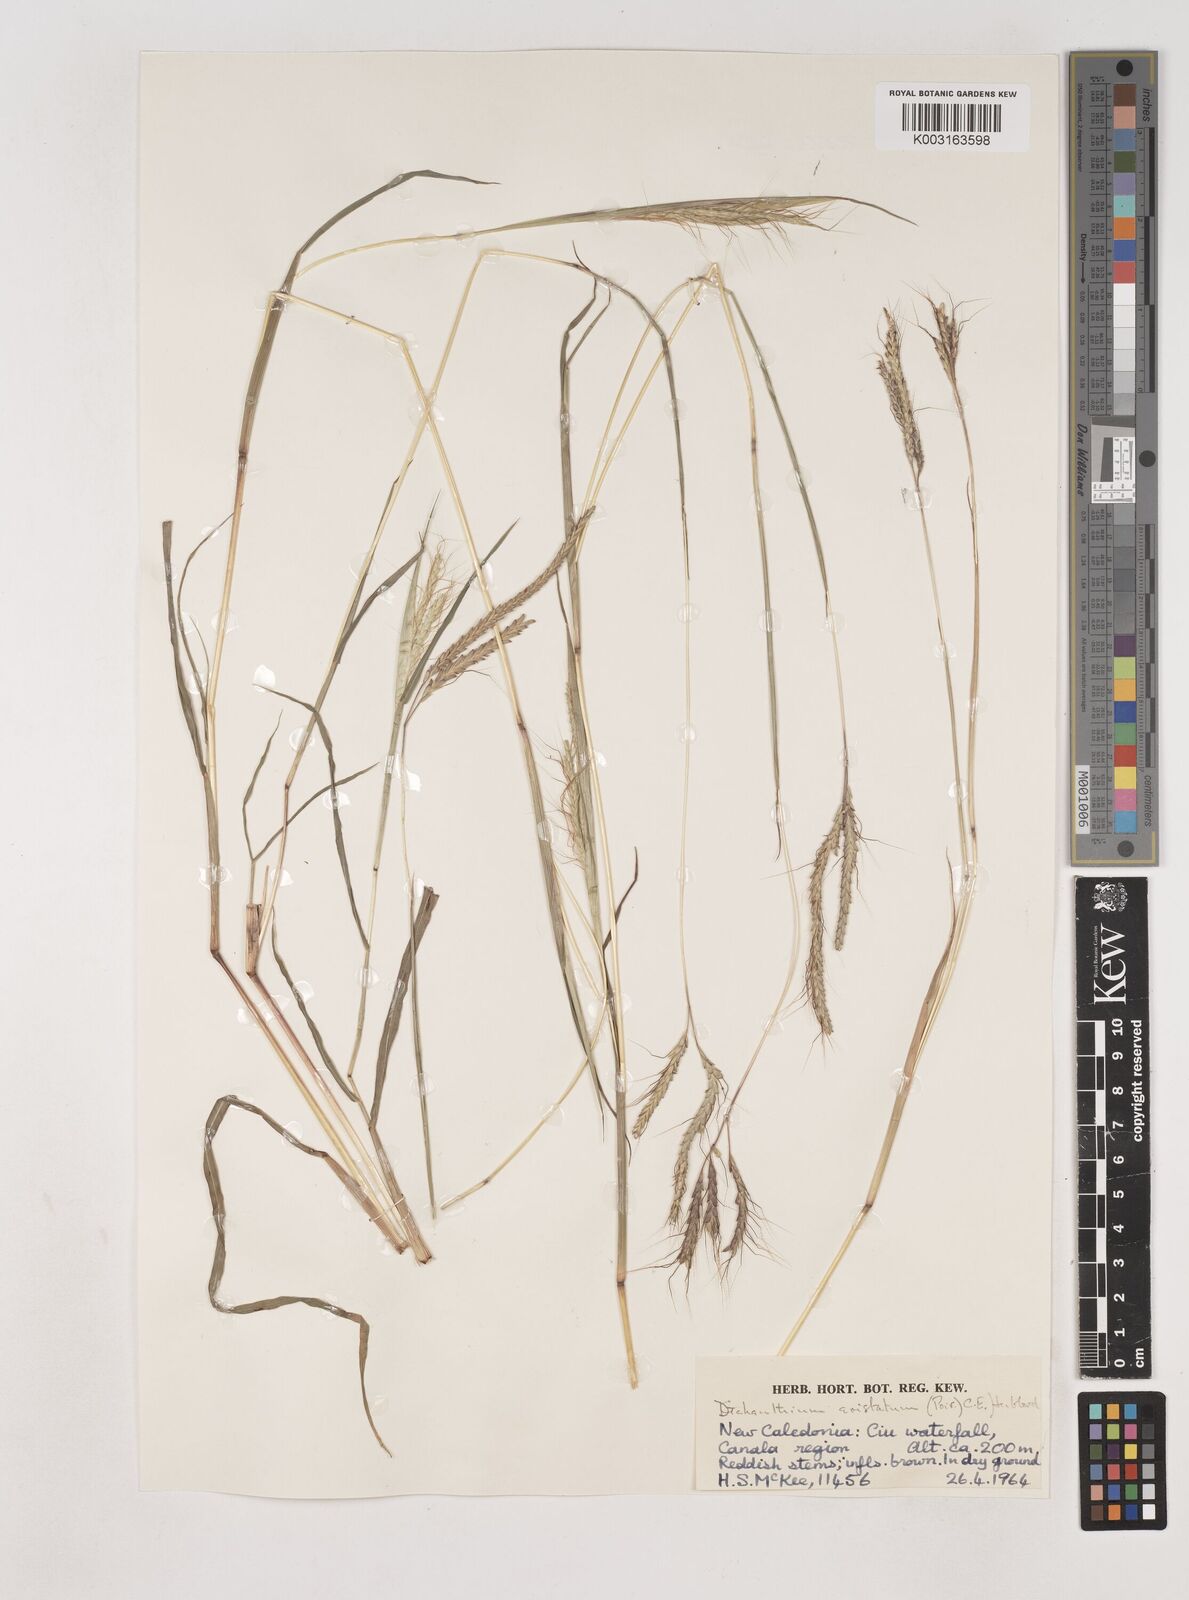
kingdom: Plantae
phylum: Tracheophyta
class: Liliopsida
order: Poales
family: Poaceae
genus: Dichanthium
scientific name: Dichanthium aristatum
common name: Angleton bluestem
